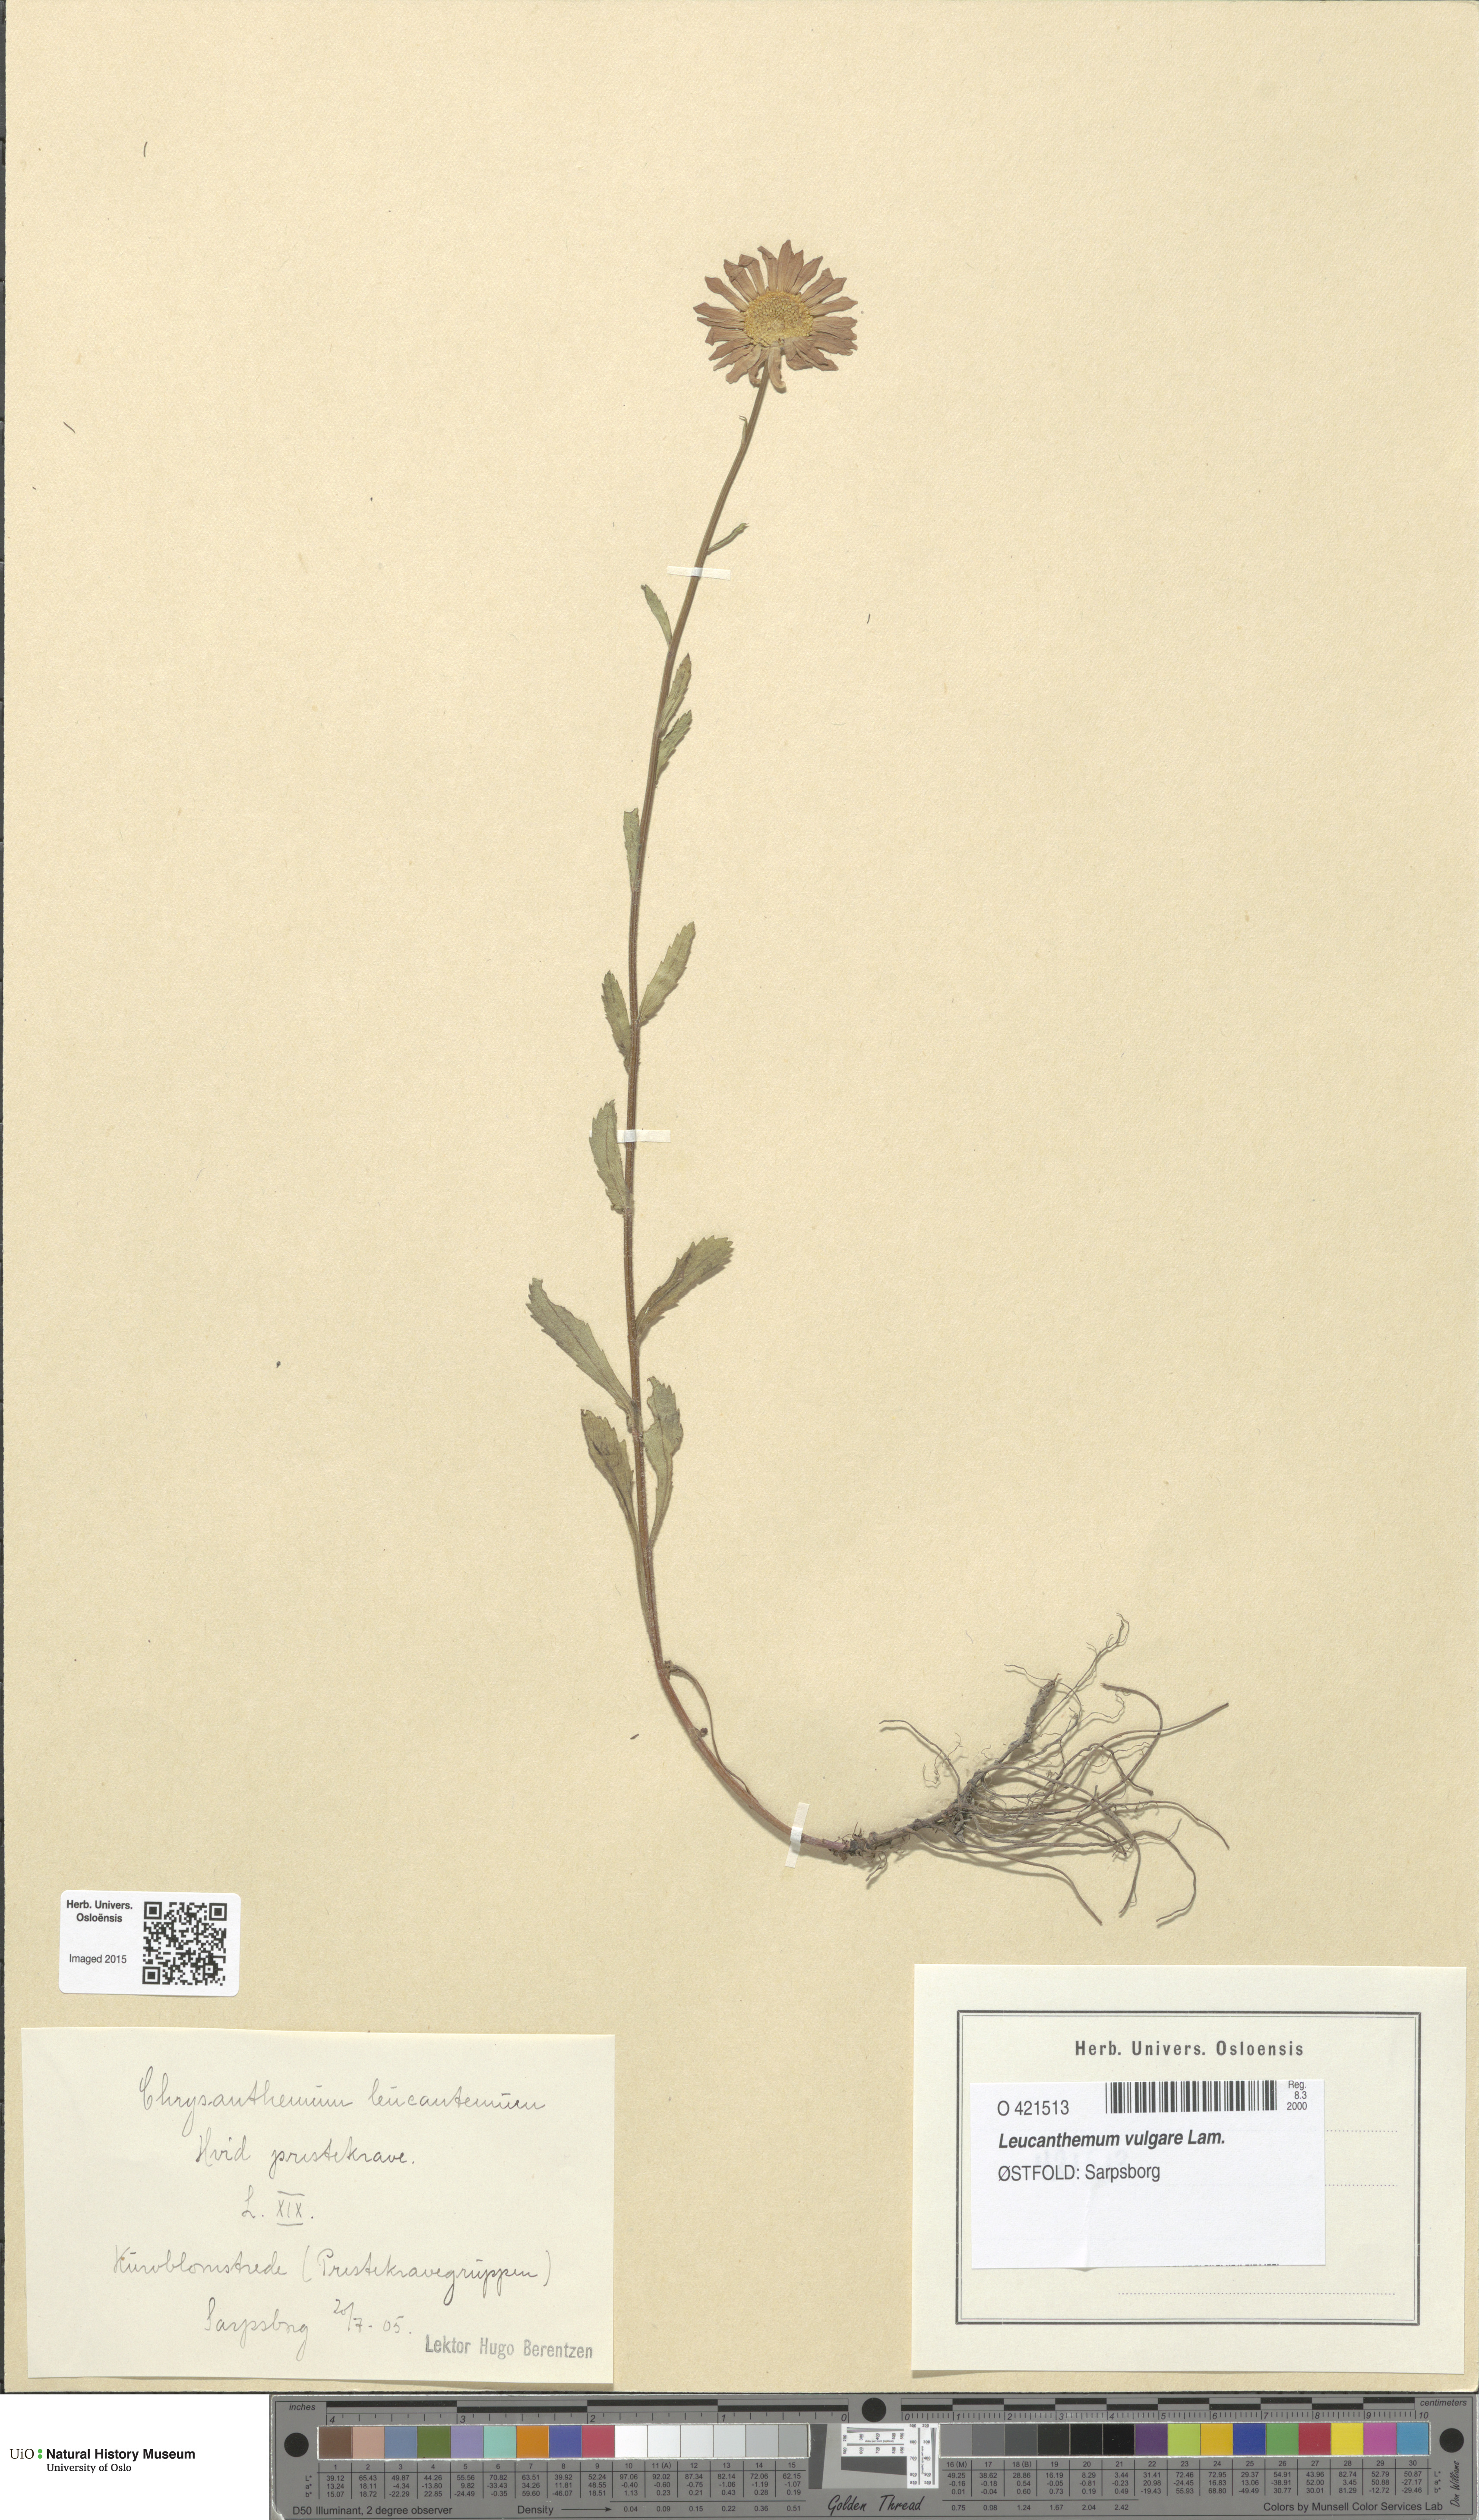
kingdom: Plantae
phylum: Tracheophyta
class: Magnoliopsida
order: Asterales
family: Asteraceae
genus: Leucanthemum
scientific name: Leucanthemum vulgare
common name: Oxeye daisy
